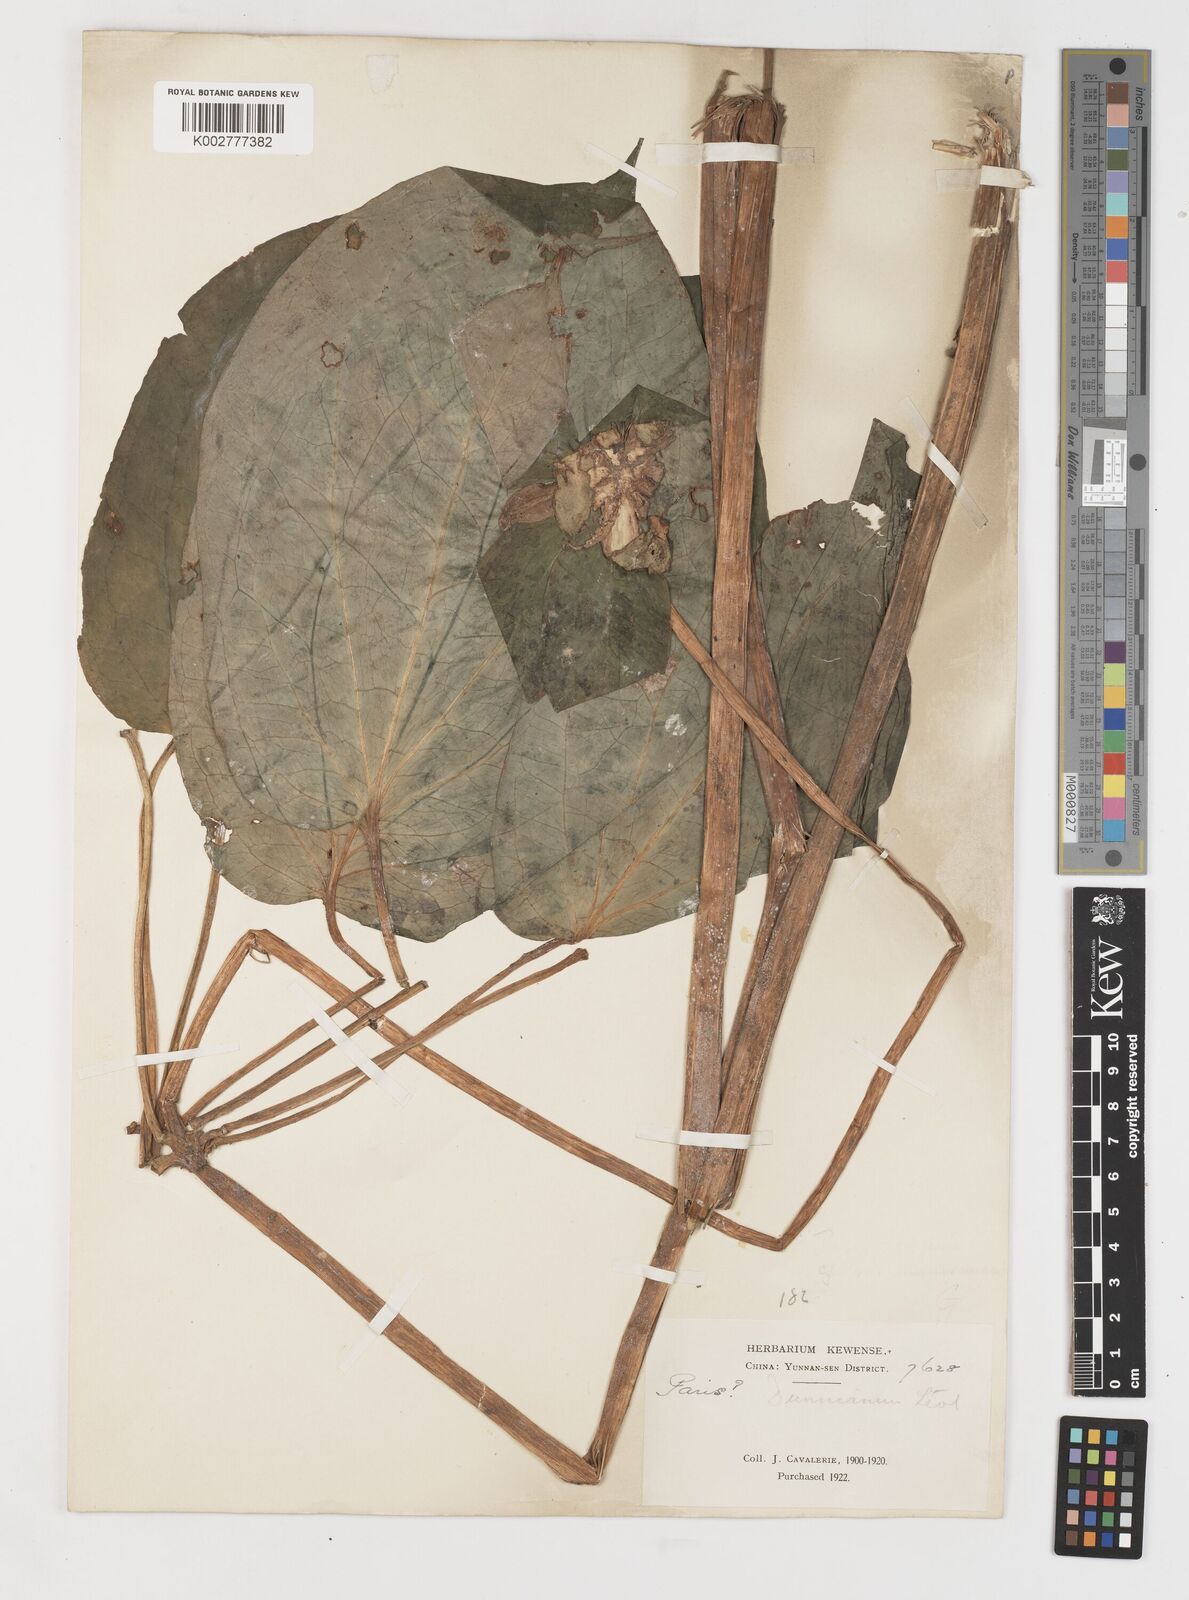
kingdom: Plantae
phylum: Tracheophyta
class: Liliopsida
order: Liliales
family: Melanthiaceae
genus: Paris
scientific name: Paris dunniana
